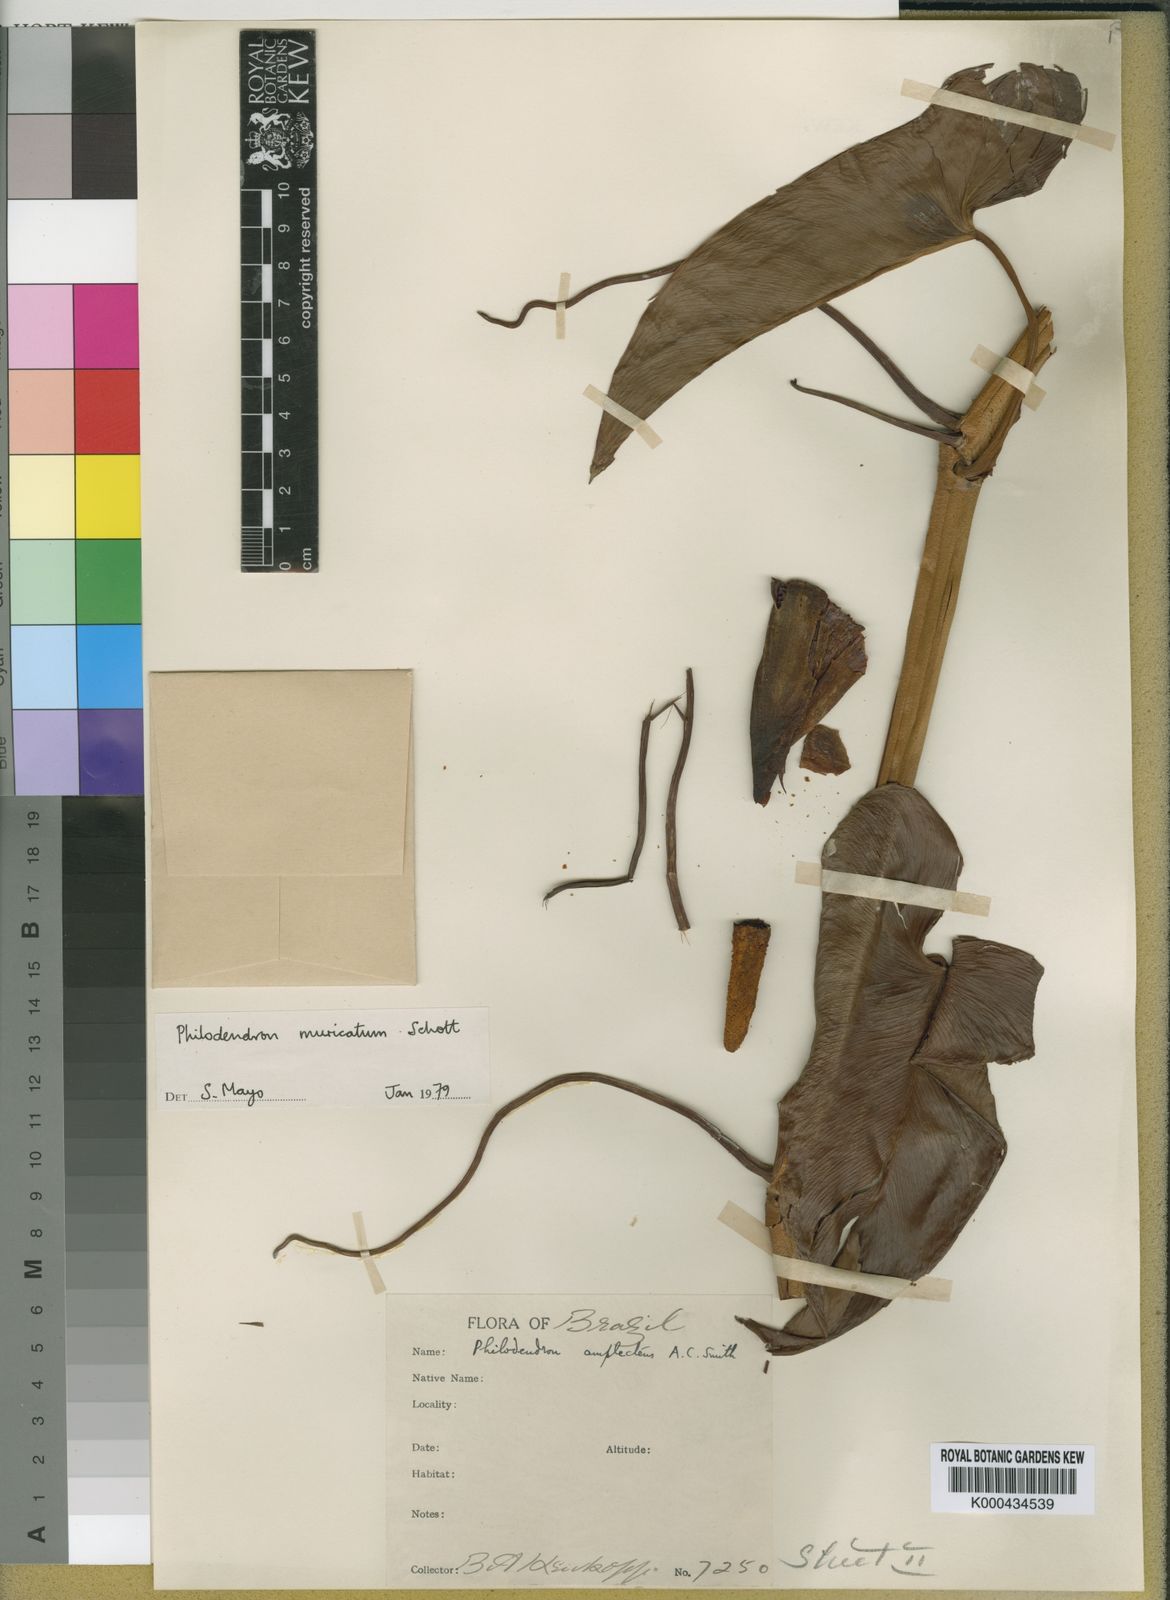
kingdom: Plantae
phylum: Tracheophyta
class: Liliopsida
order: Alismatales
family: Araceae
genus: Philodendron
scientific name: Philodendron muricatum
